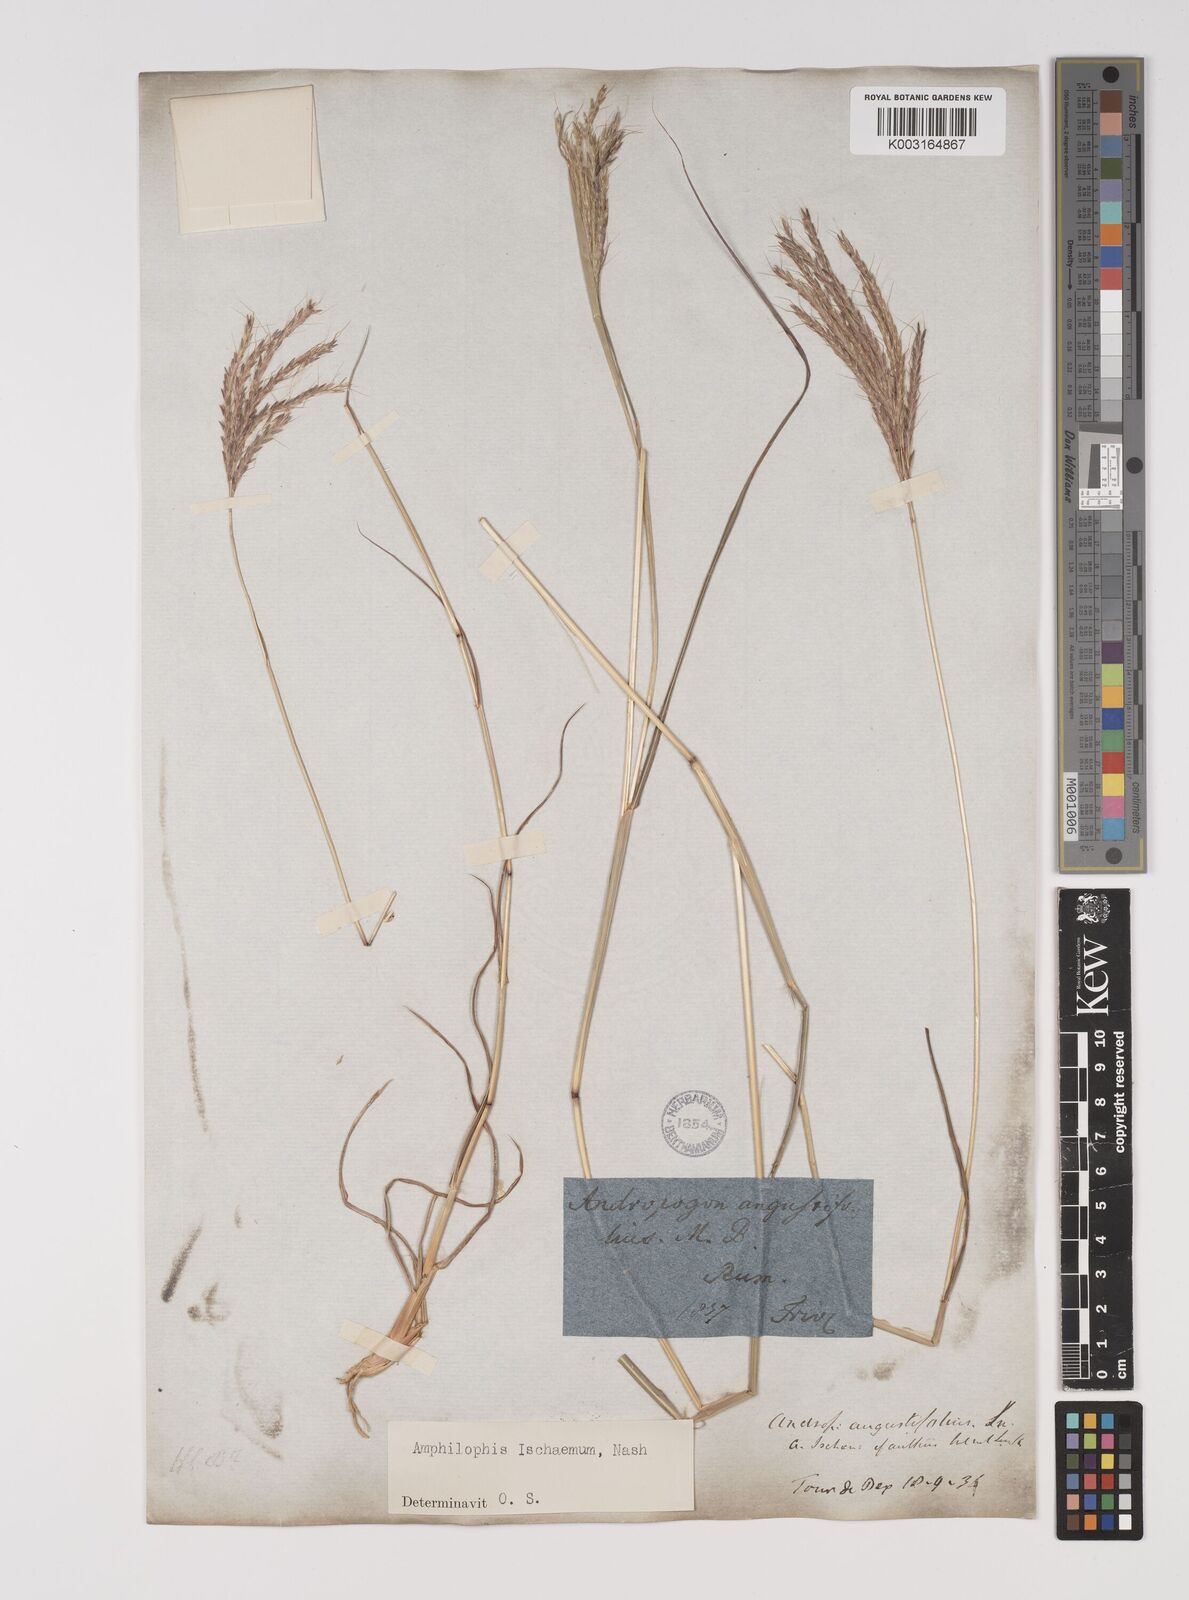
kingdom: Plantae
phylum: Tracheophyta
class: Liliopsida
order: Poales
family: Poaceae
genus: Bothriochloa
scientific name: Bothriochloa ischaemum
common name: Yellow bluestem
